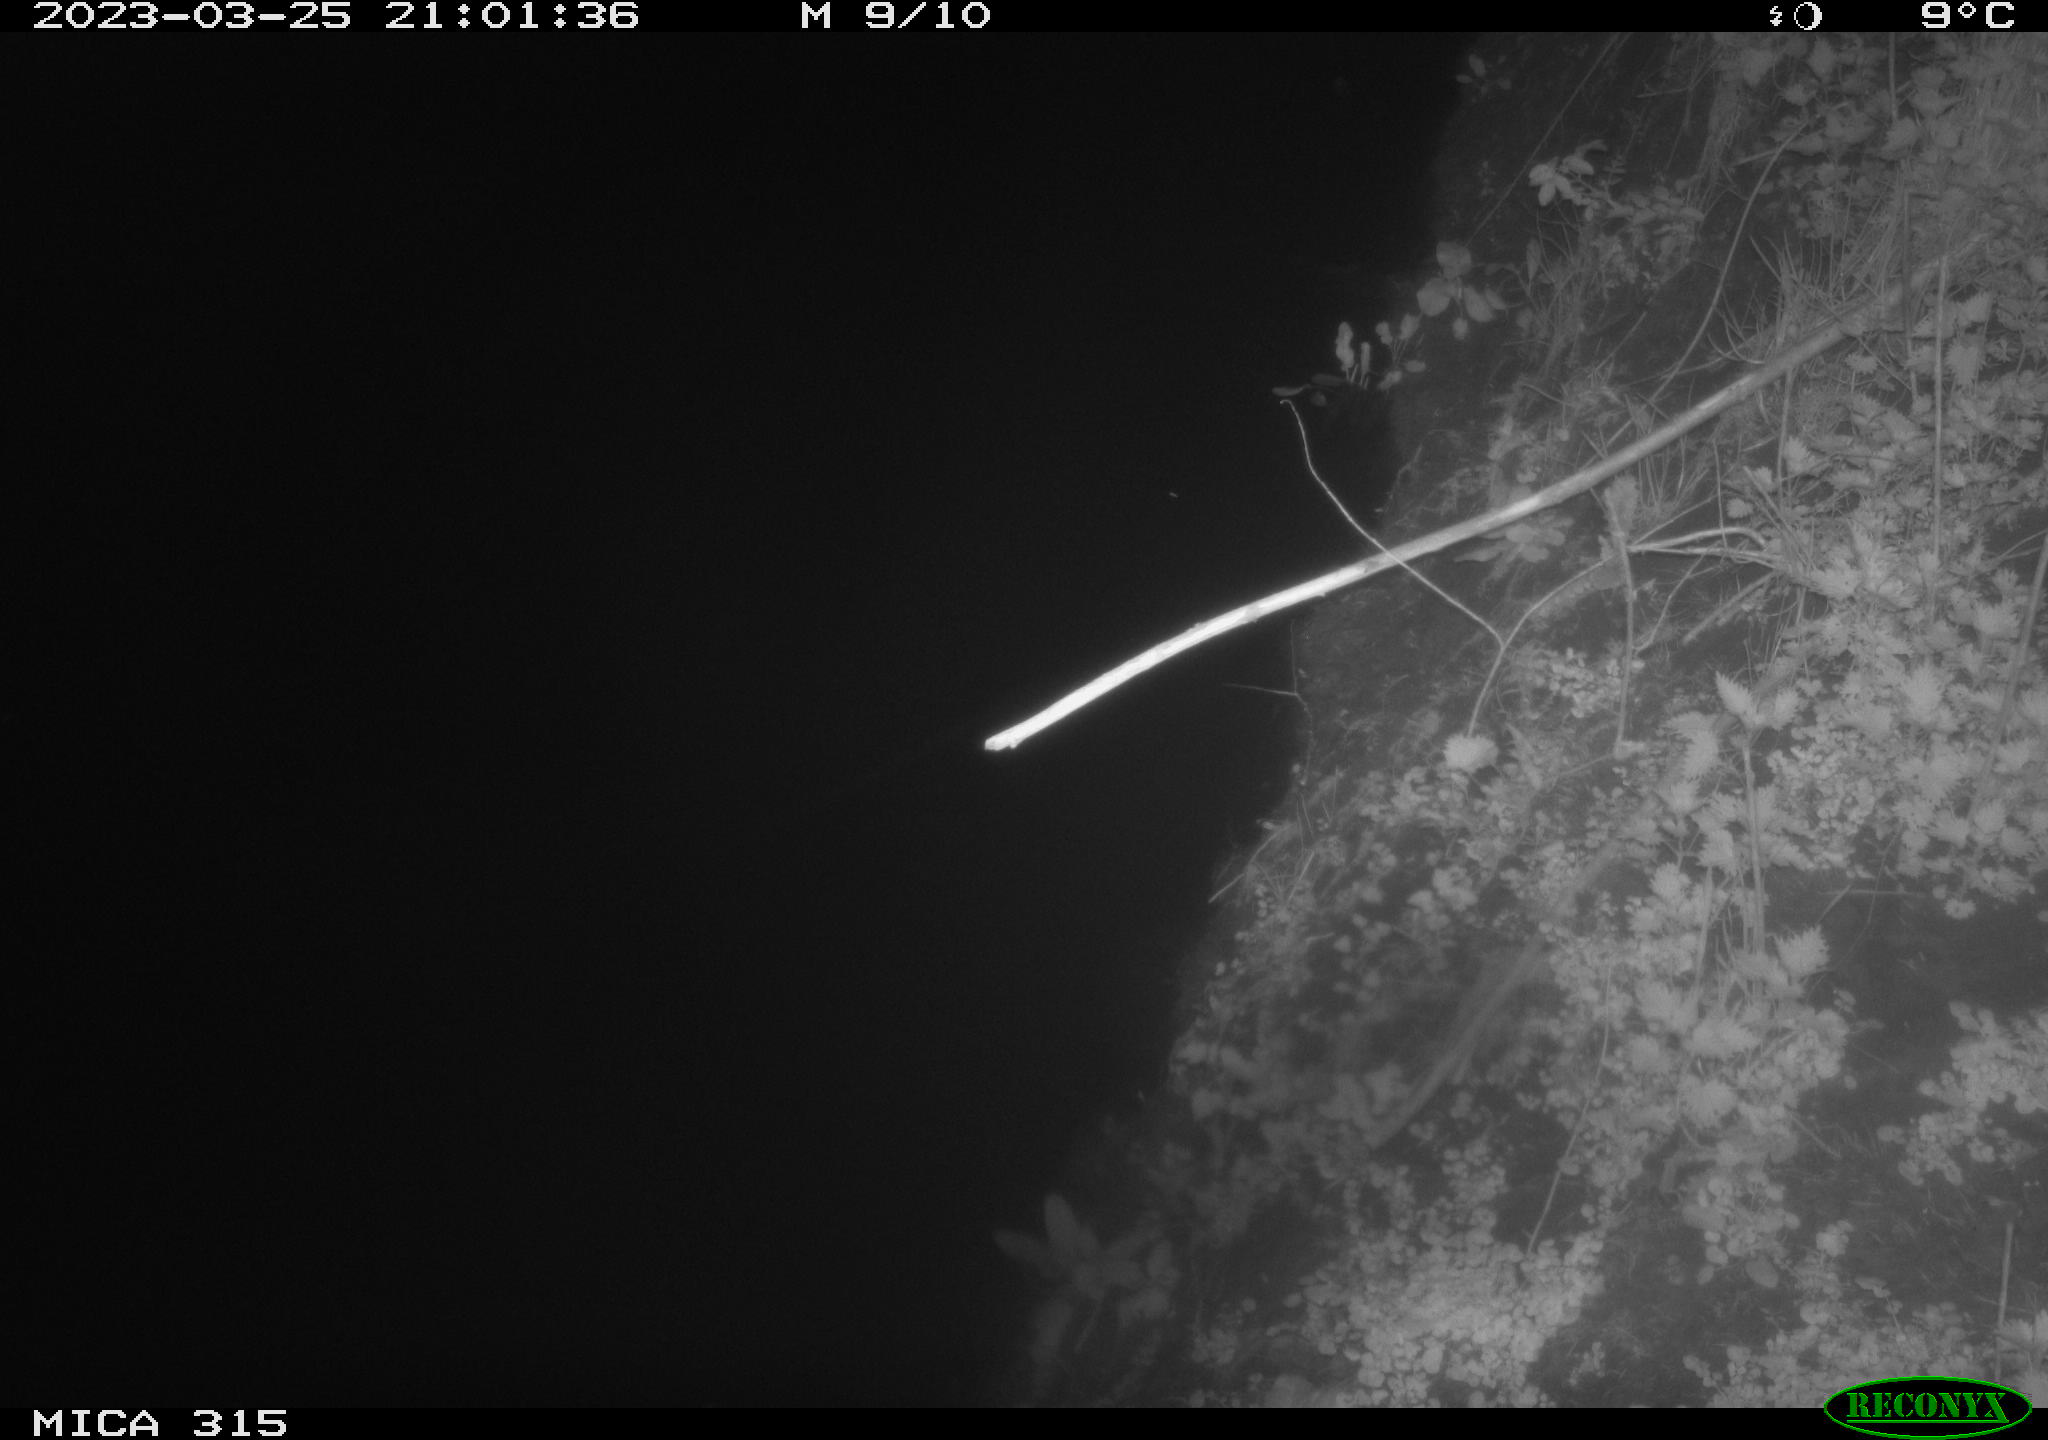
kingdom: Animalia
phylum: Chordata
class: Mammalia
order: Rodentia
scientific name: Rodentia
